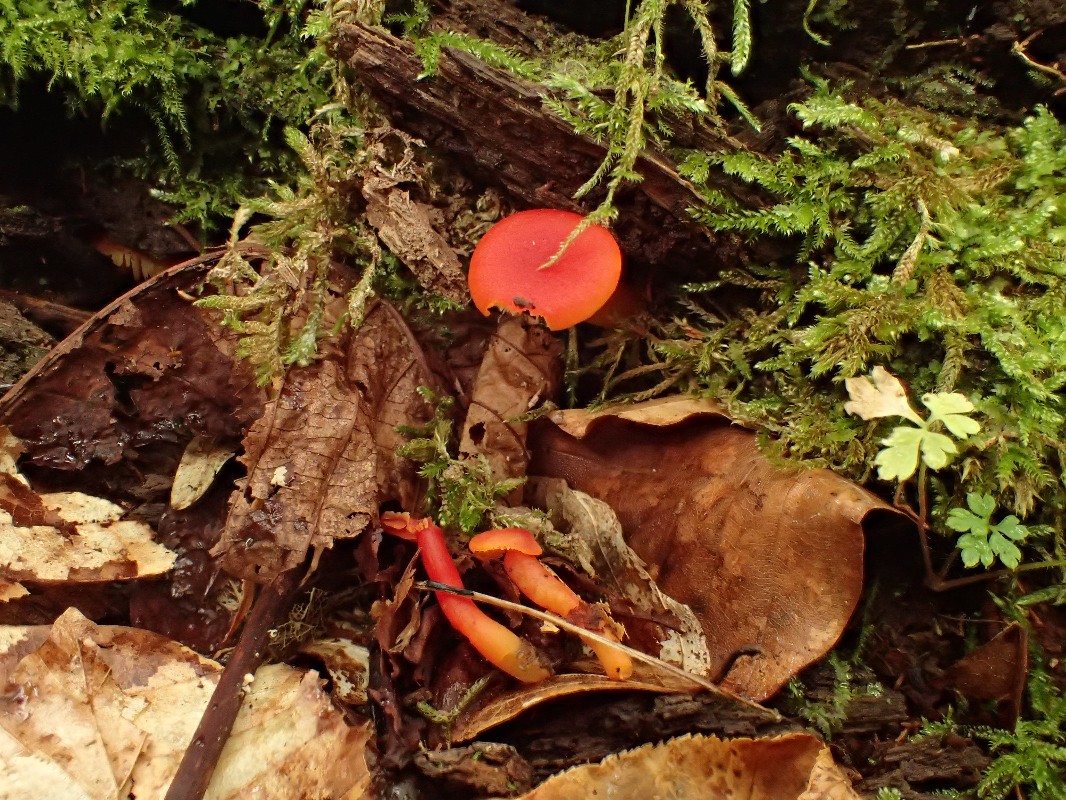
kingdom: Fungi
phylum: Basidiomycota
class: Agaricomycetes
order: Agaricales
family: Hygrophoraceae
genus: Hygrocybe
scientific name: Hygrocybe reidii
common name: honning-vokshat
